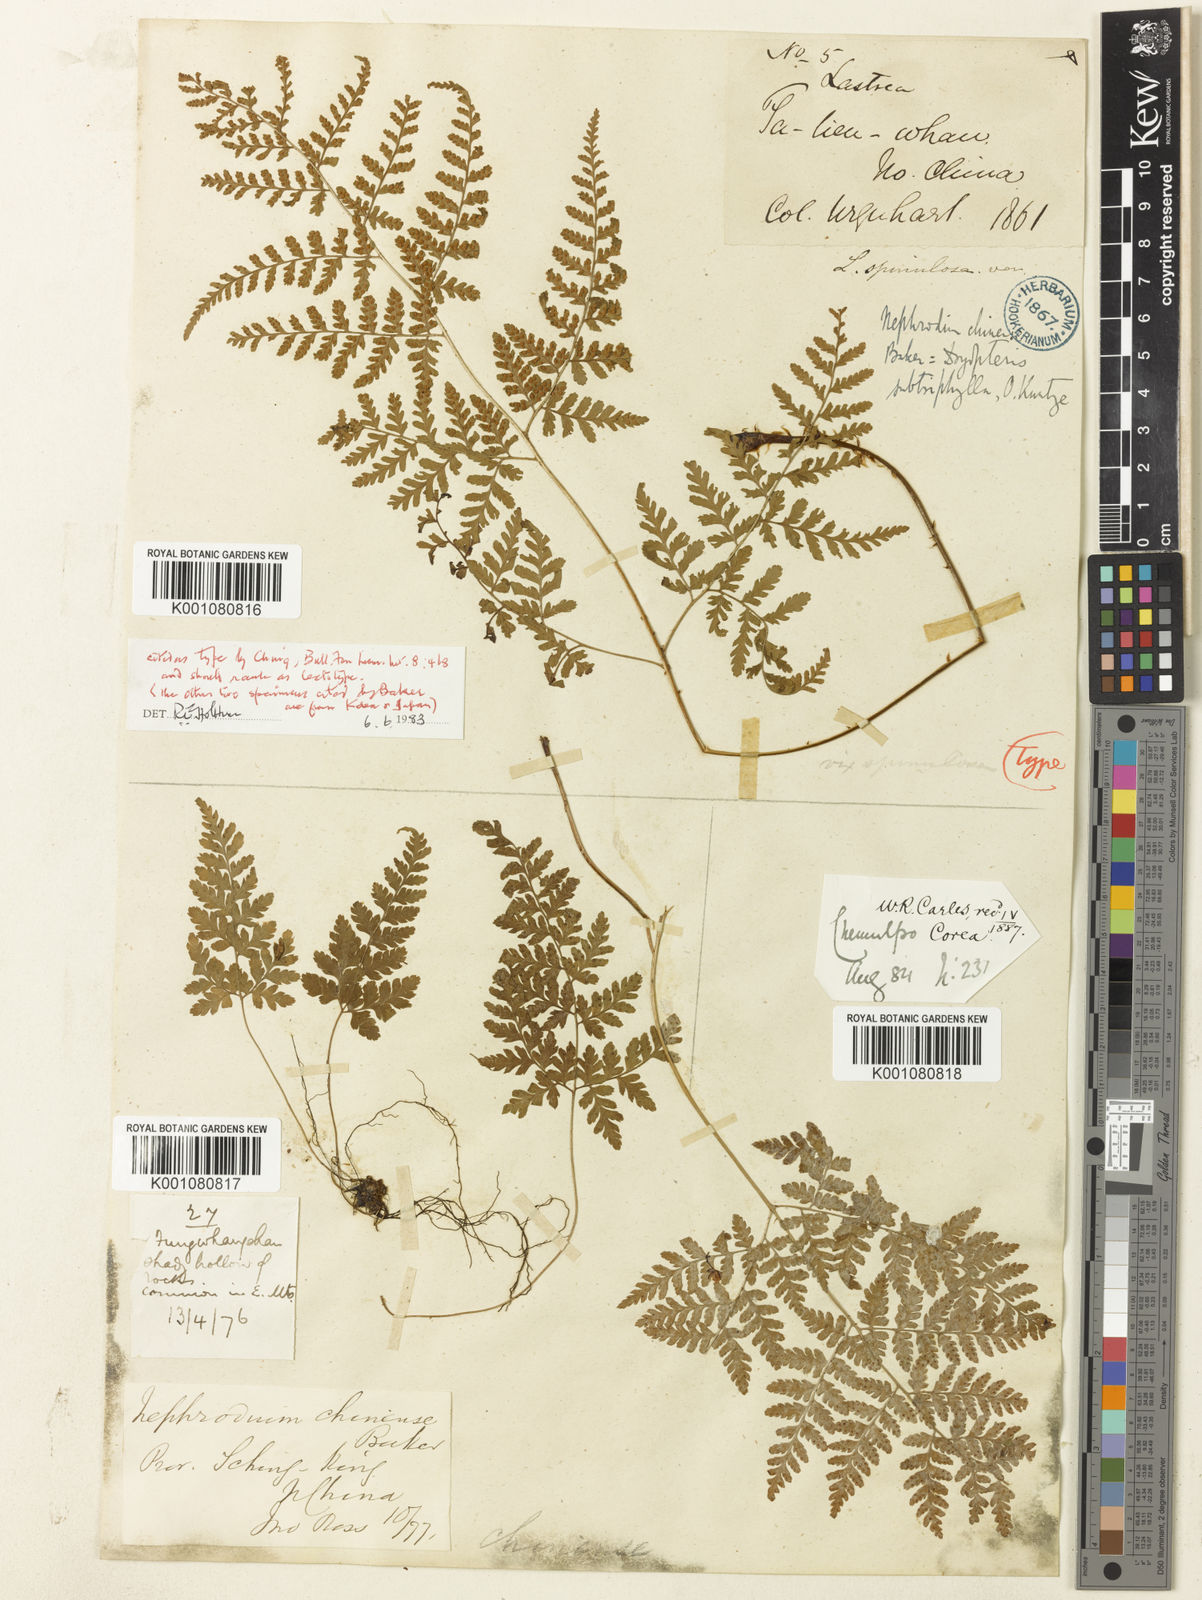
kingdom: Plantae
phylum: Tracheophyta
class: Polypodiopsida
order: Polypodiales
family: Dryopteridaceae
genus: Dryopteris
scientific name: Dryopteris chinensis
